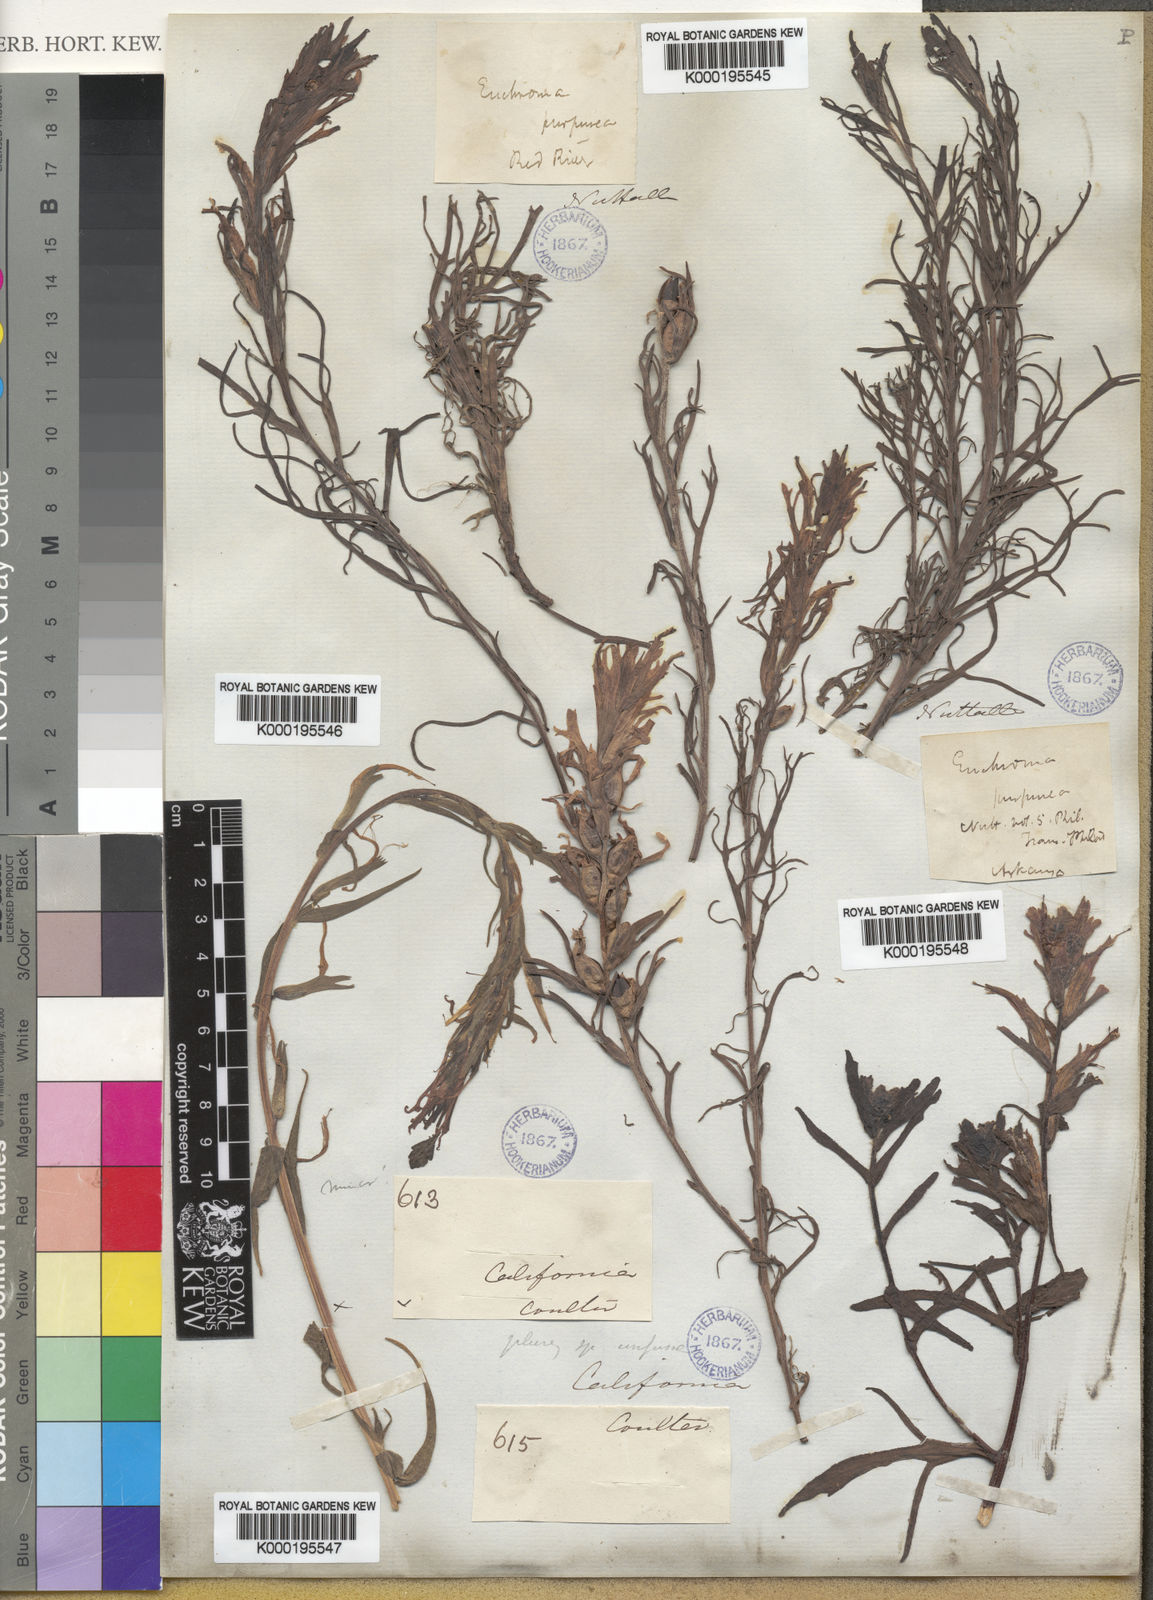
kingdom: Plantae
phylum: Tracheophyta
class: Magnoliopsida
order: Lamiales
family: Orobanchaceae
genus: Castilleja
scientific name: Castilleja purpurea
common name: Plains paintbrush
